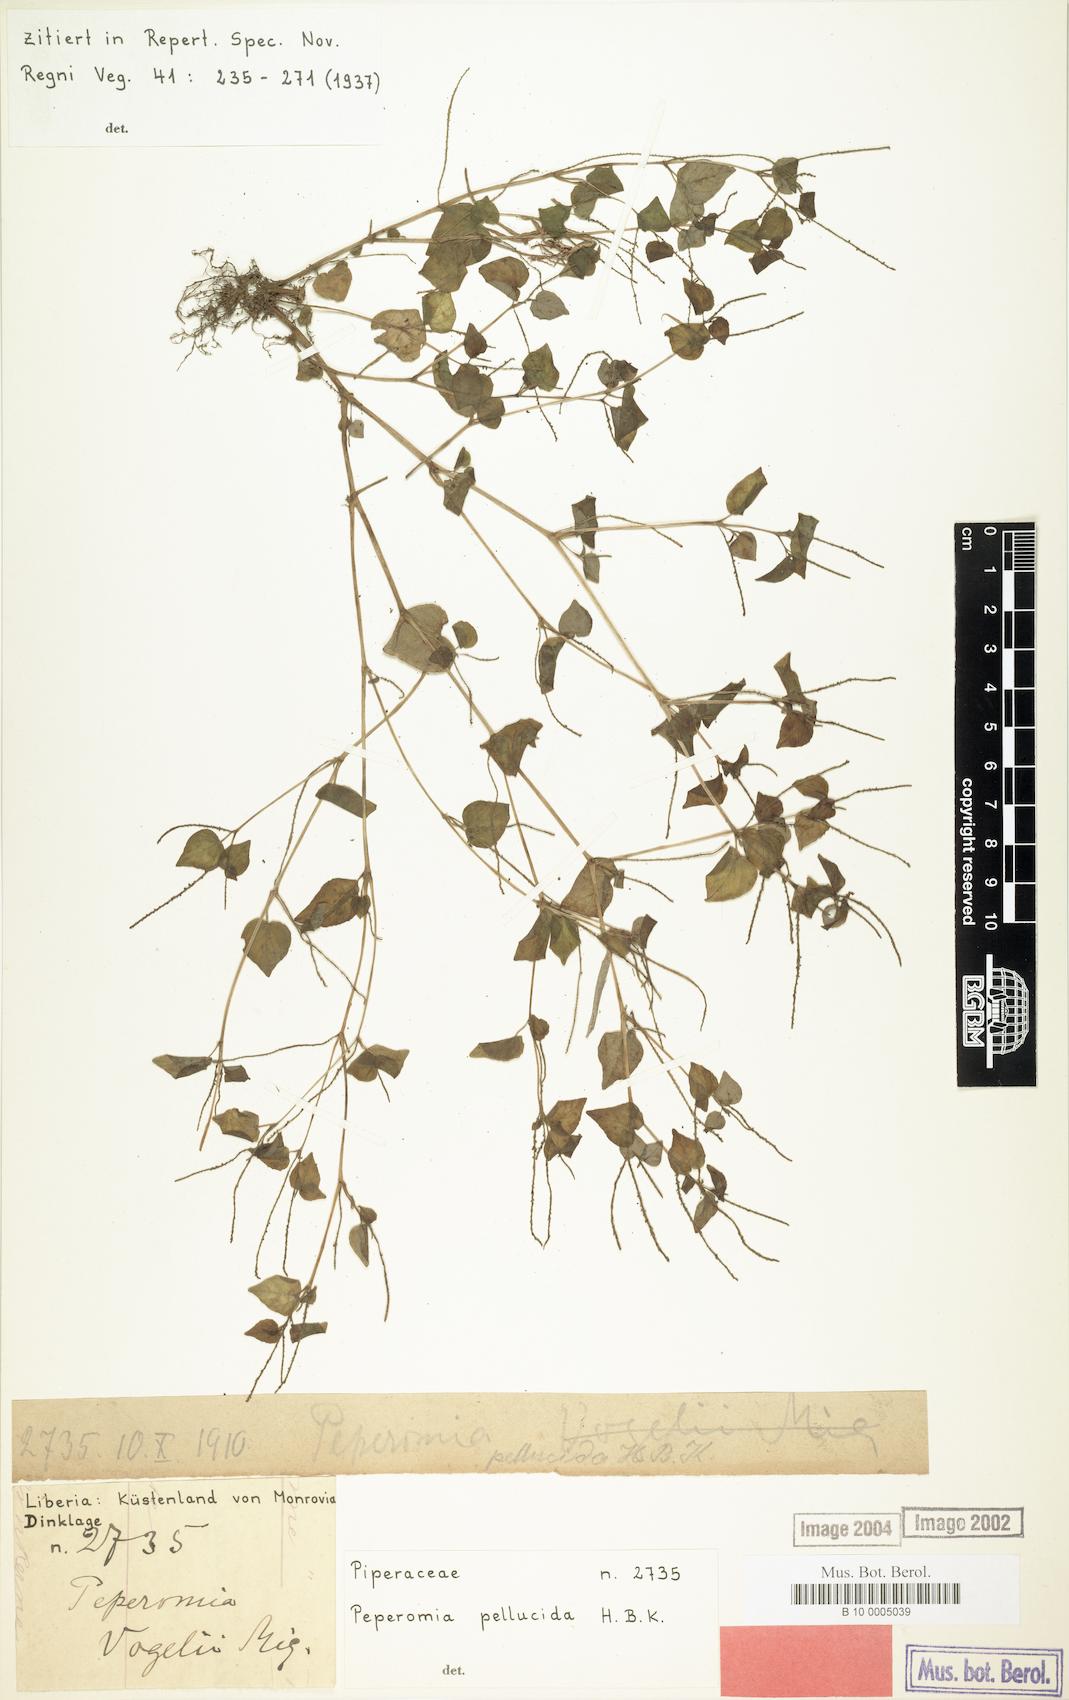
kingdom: Plantae
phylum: Tracheophyta
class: Magnoliopsida
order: Piperales
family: Piperaceae
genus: Peperomia
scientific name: Peperomia pellucida
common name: Man to man
